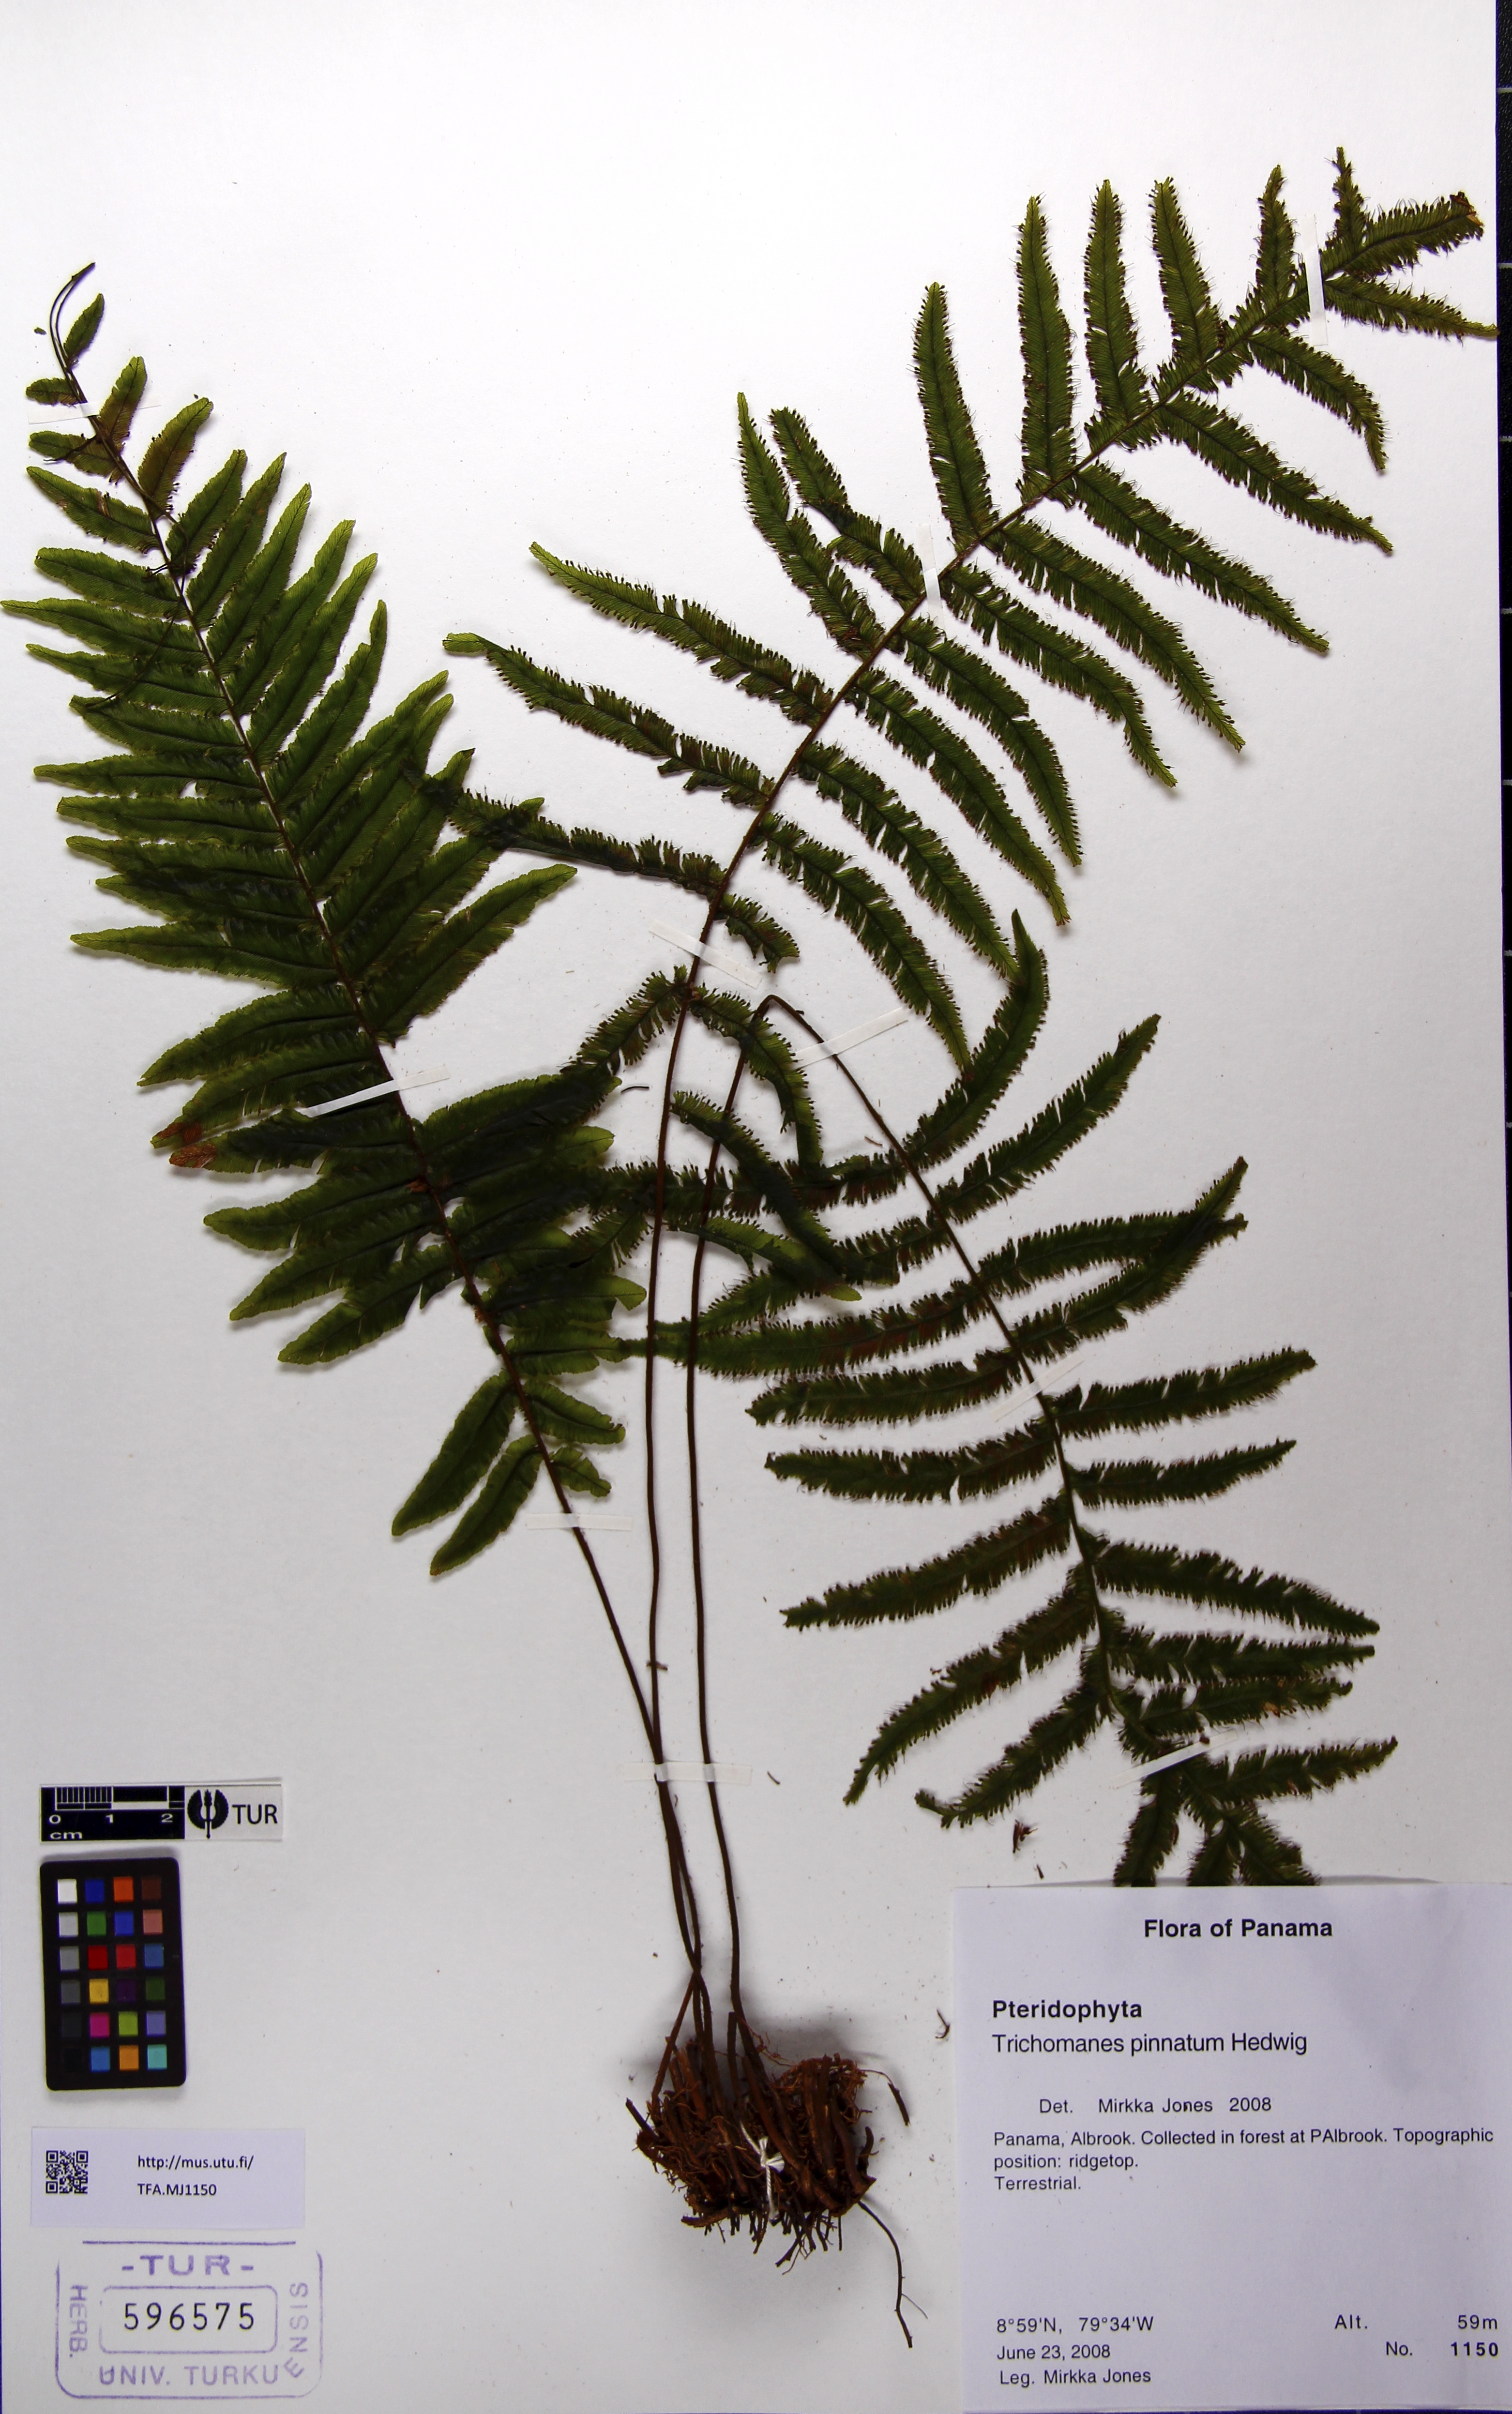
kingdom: Plantae
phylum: Tracheophyta
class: Polypodiopsida
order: Hymenophyllales
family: Hymenophyllaceae
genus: Trichomanes
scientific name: Trichomanes pinnatum
